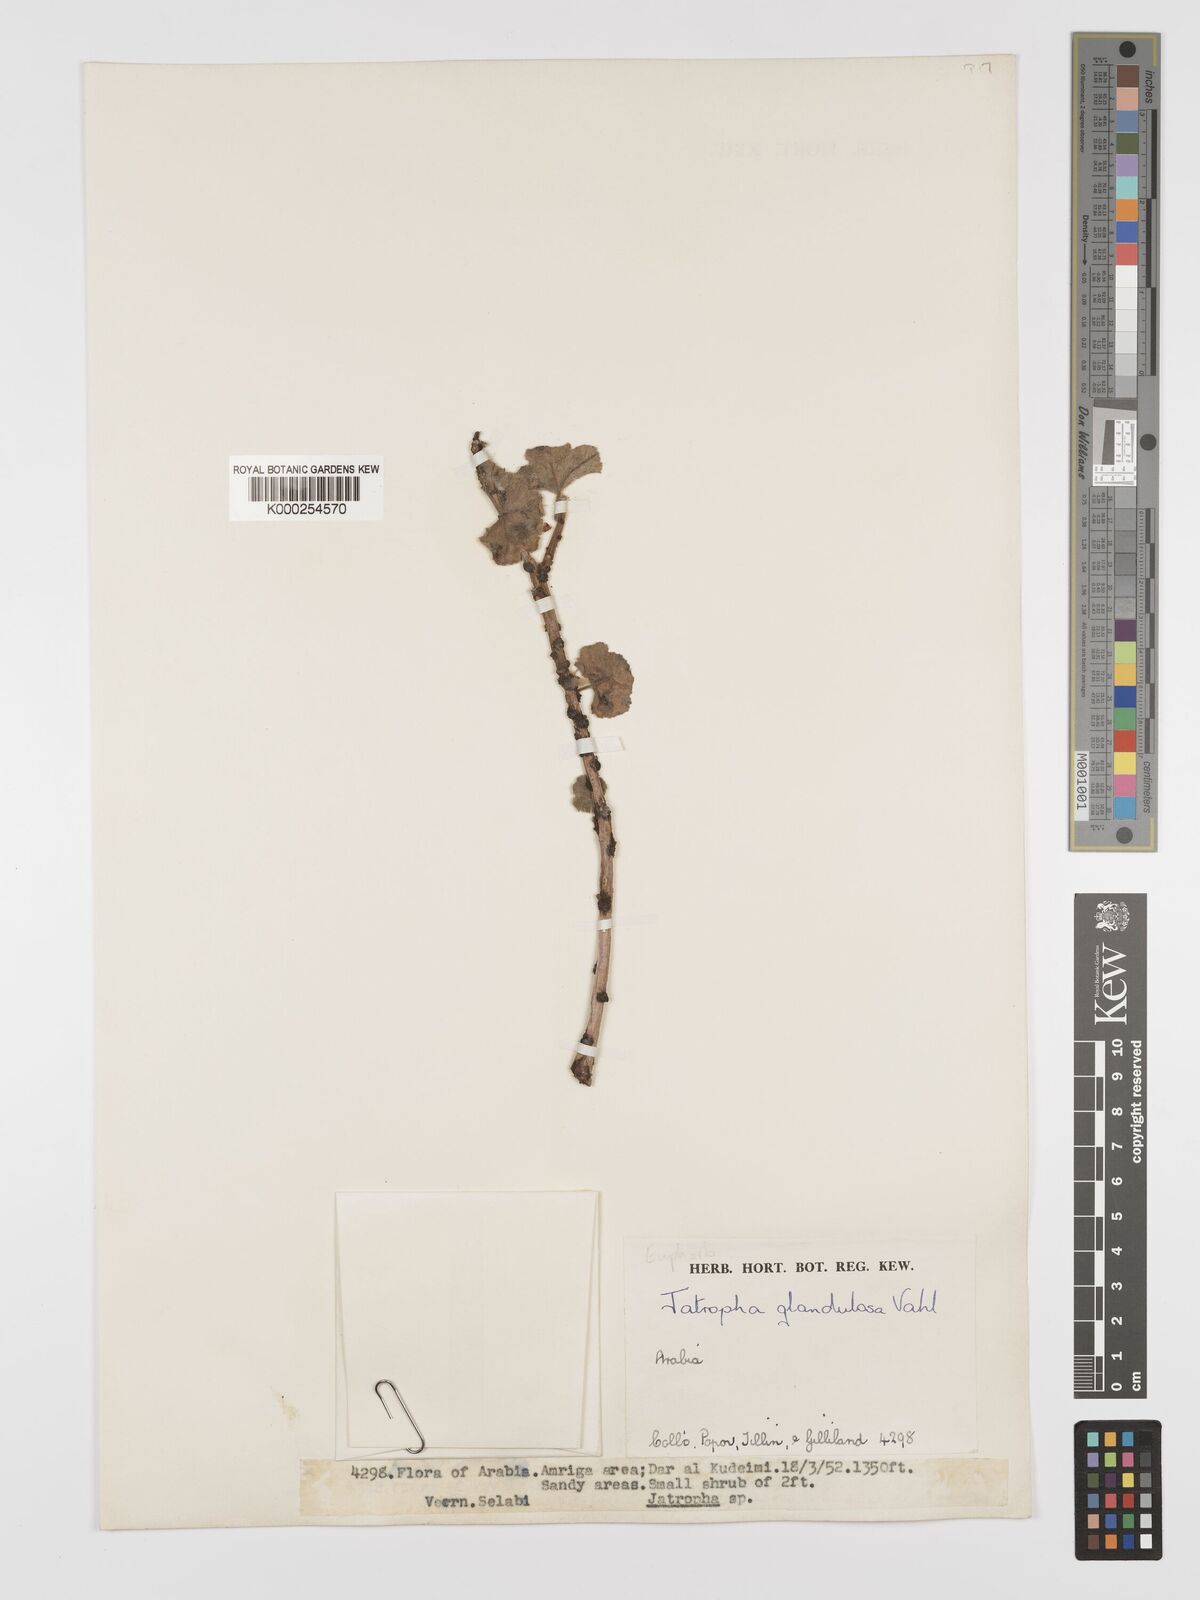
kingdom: Plantae
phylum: Tracheophyta
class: Magnoliopsida
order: Malpighiales
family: Euphorbiaceae
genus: Jatropha
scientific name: Jatropha pelargoniifolia
